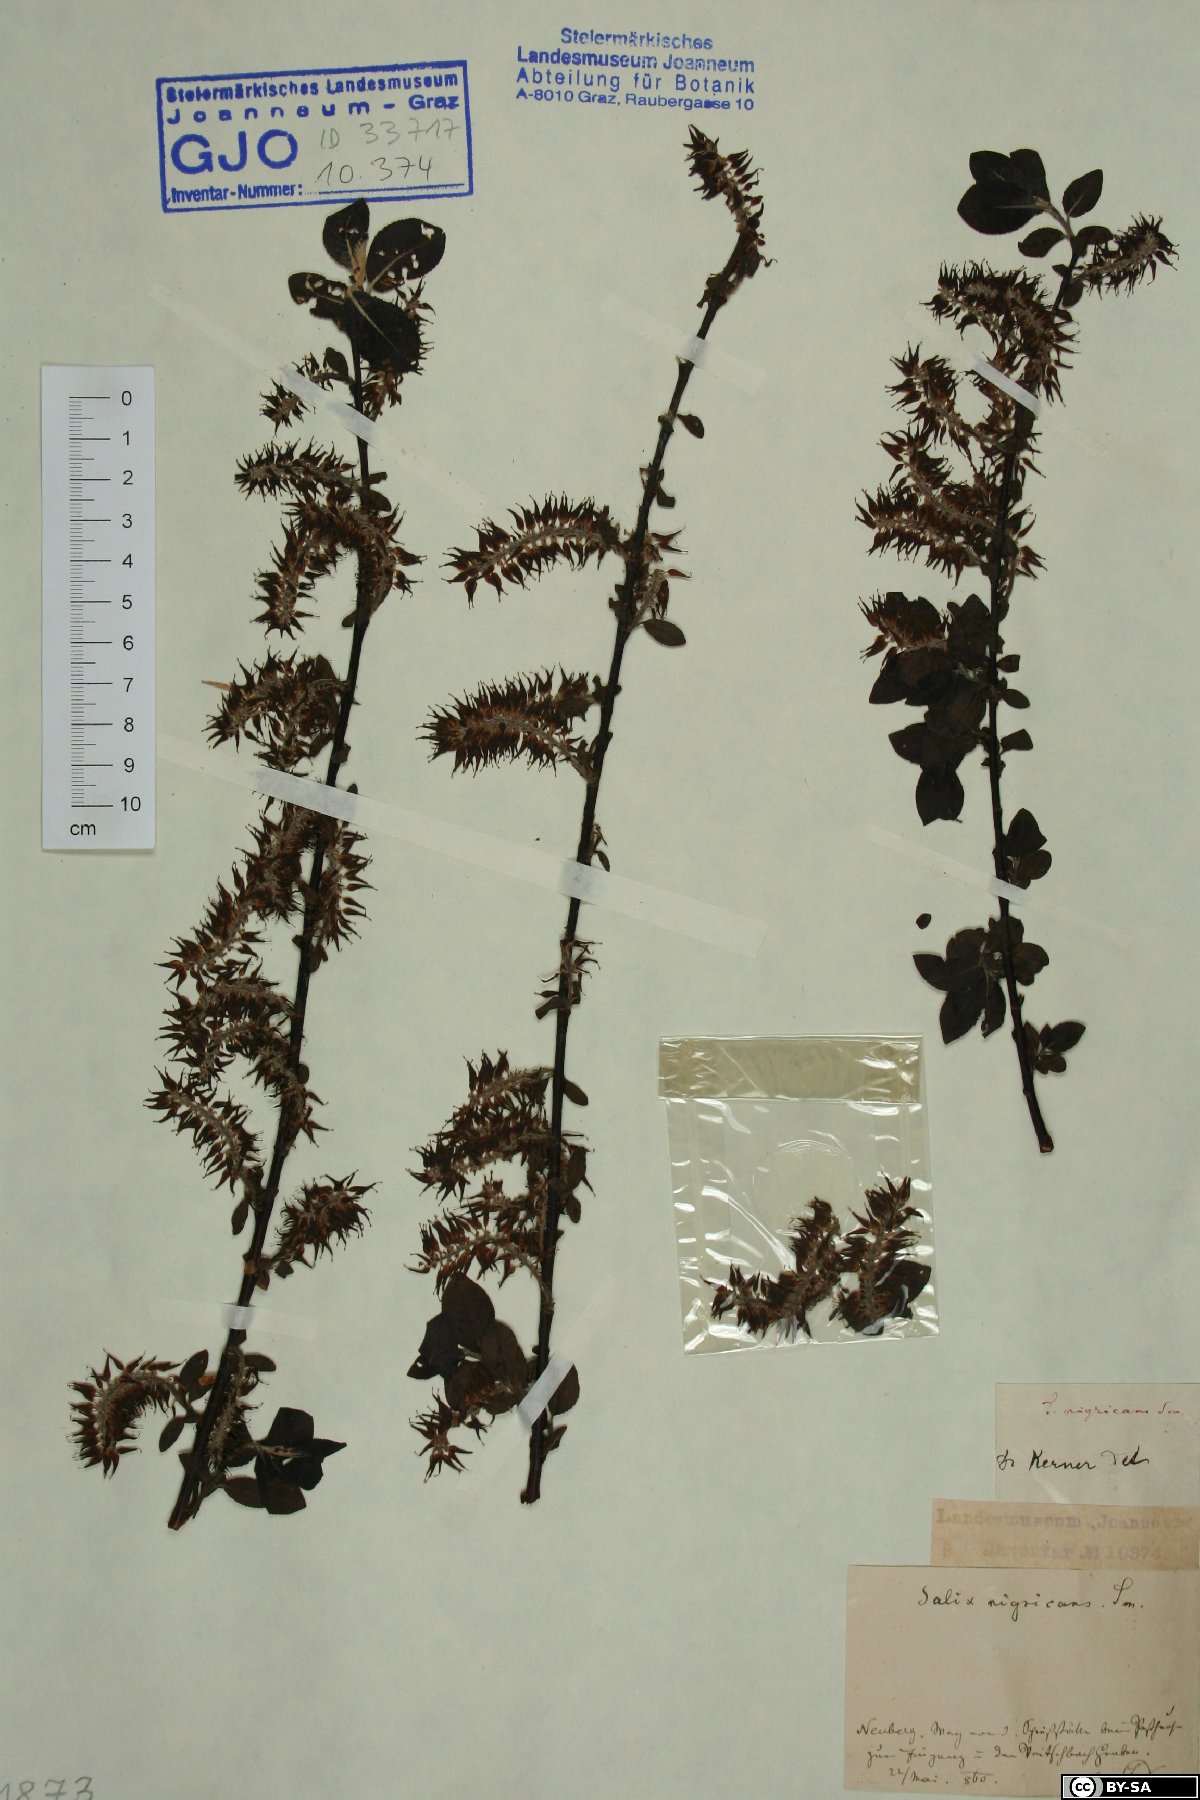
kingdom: Plantae
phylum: Tracheophyta
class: Magnoliopsida
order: Malpighiales
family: Salicaceae
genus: Salix
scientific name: Salix myrsinifolia
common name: Dark-leaved willow
